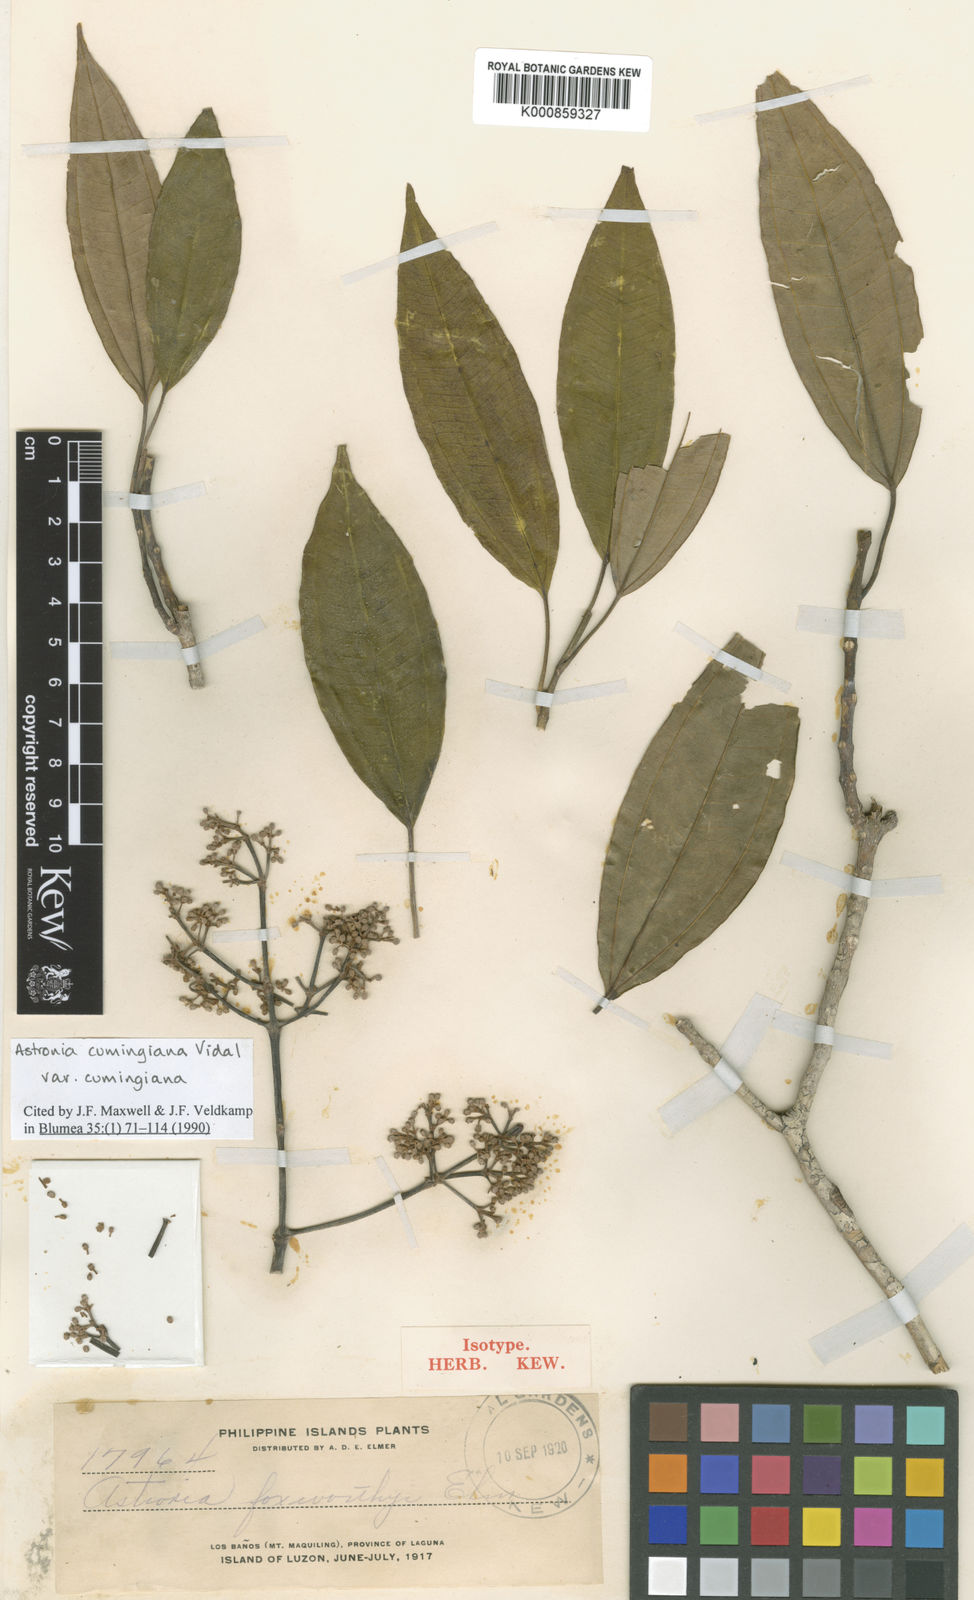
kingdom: Plantae
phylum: Tracheophyta
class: Magnoliopsida
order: Myrtales
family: Melastomataceae
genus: Astronia
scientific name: Astronia cumingiana
